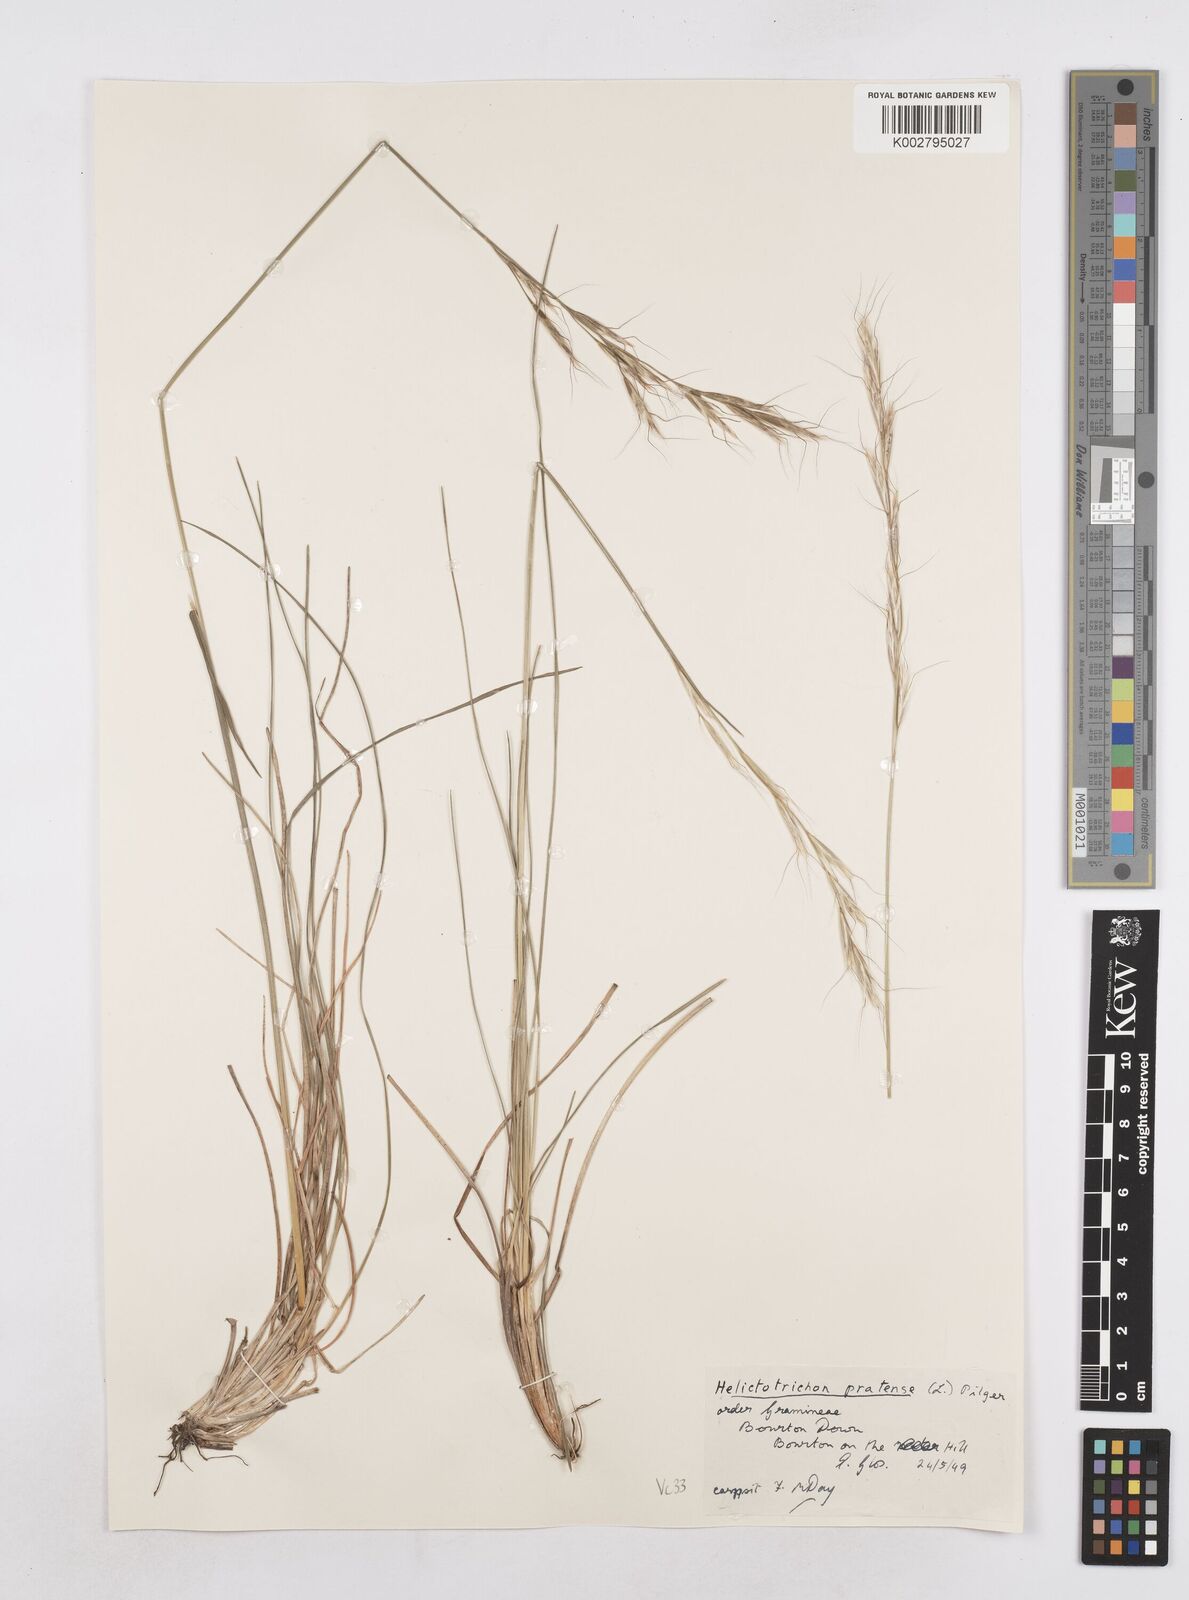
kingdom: Plantae
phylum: Tracheophyta
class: Liliopsida
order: Poales
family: Poaceae
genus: Helictochloa
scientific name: Helictochloa pratensis
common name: Meadow oat grass
